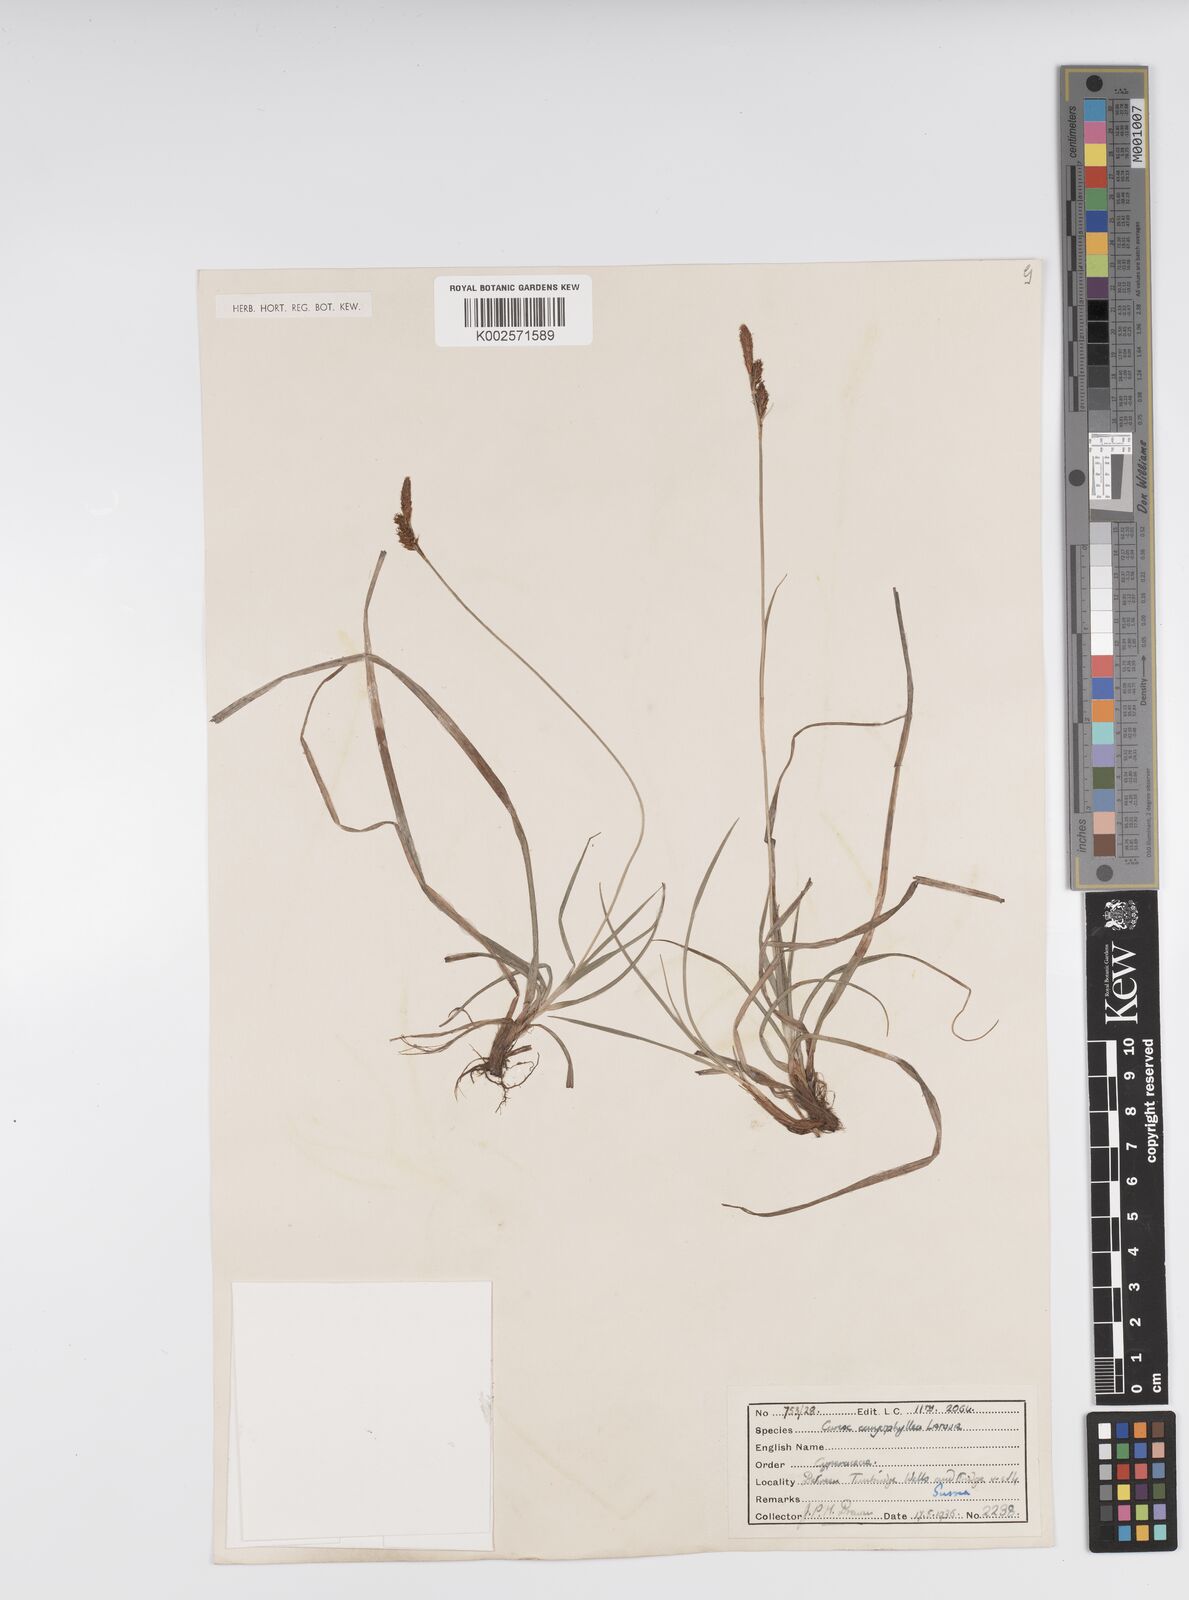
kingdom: Plantae
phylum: Tracheophyta
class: Liliopsida
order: Poales
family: Cyperaceae
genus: Carex
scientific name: Carex caryophyllea
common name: Spring sedge
